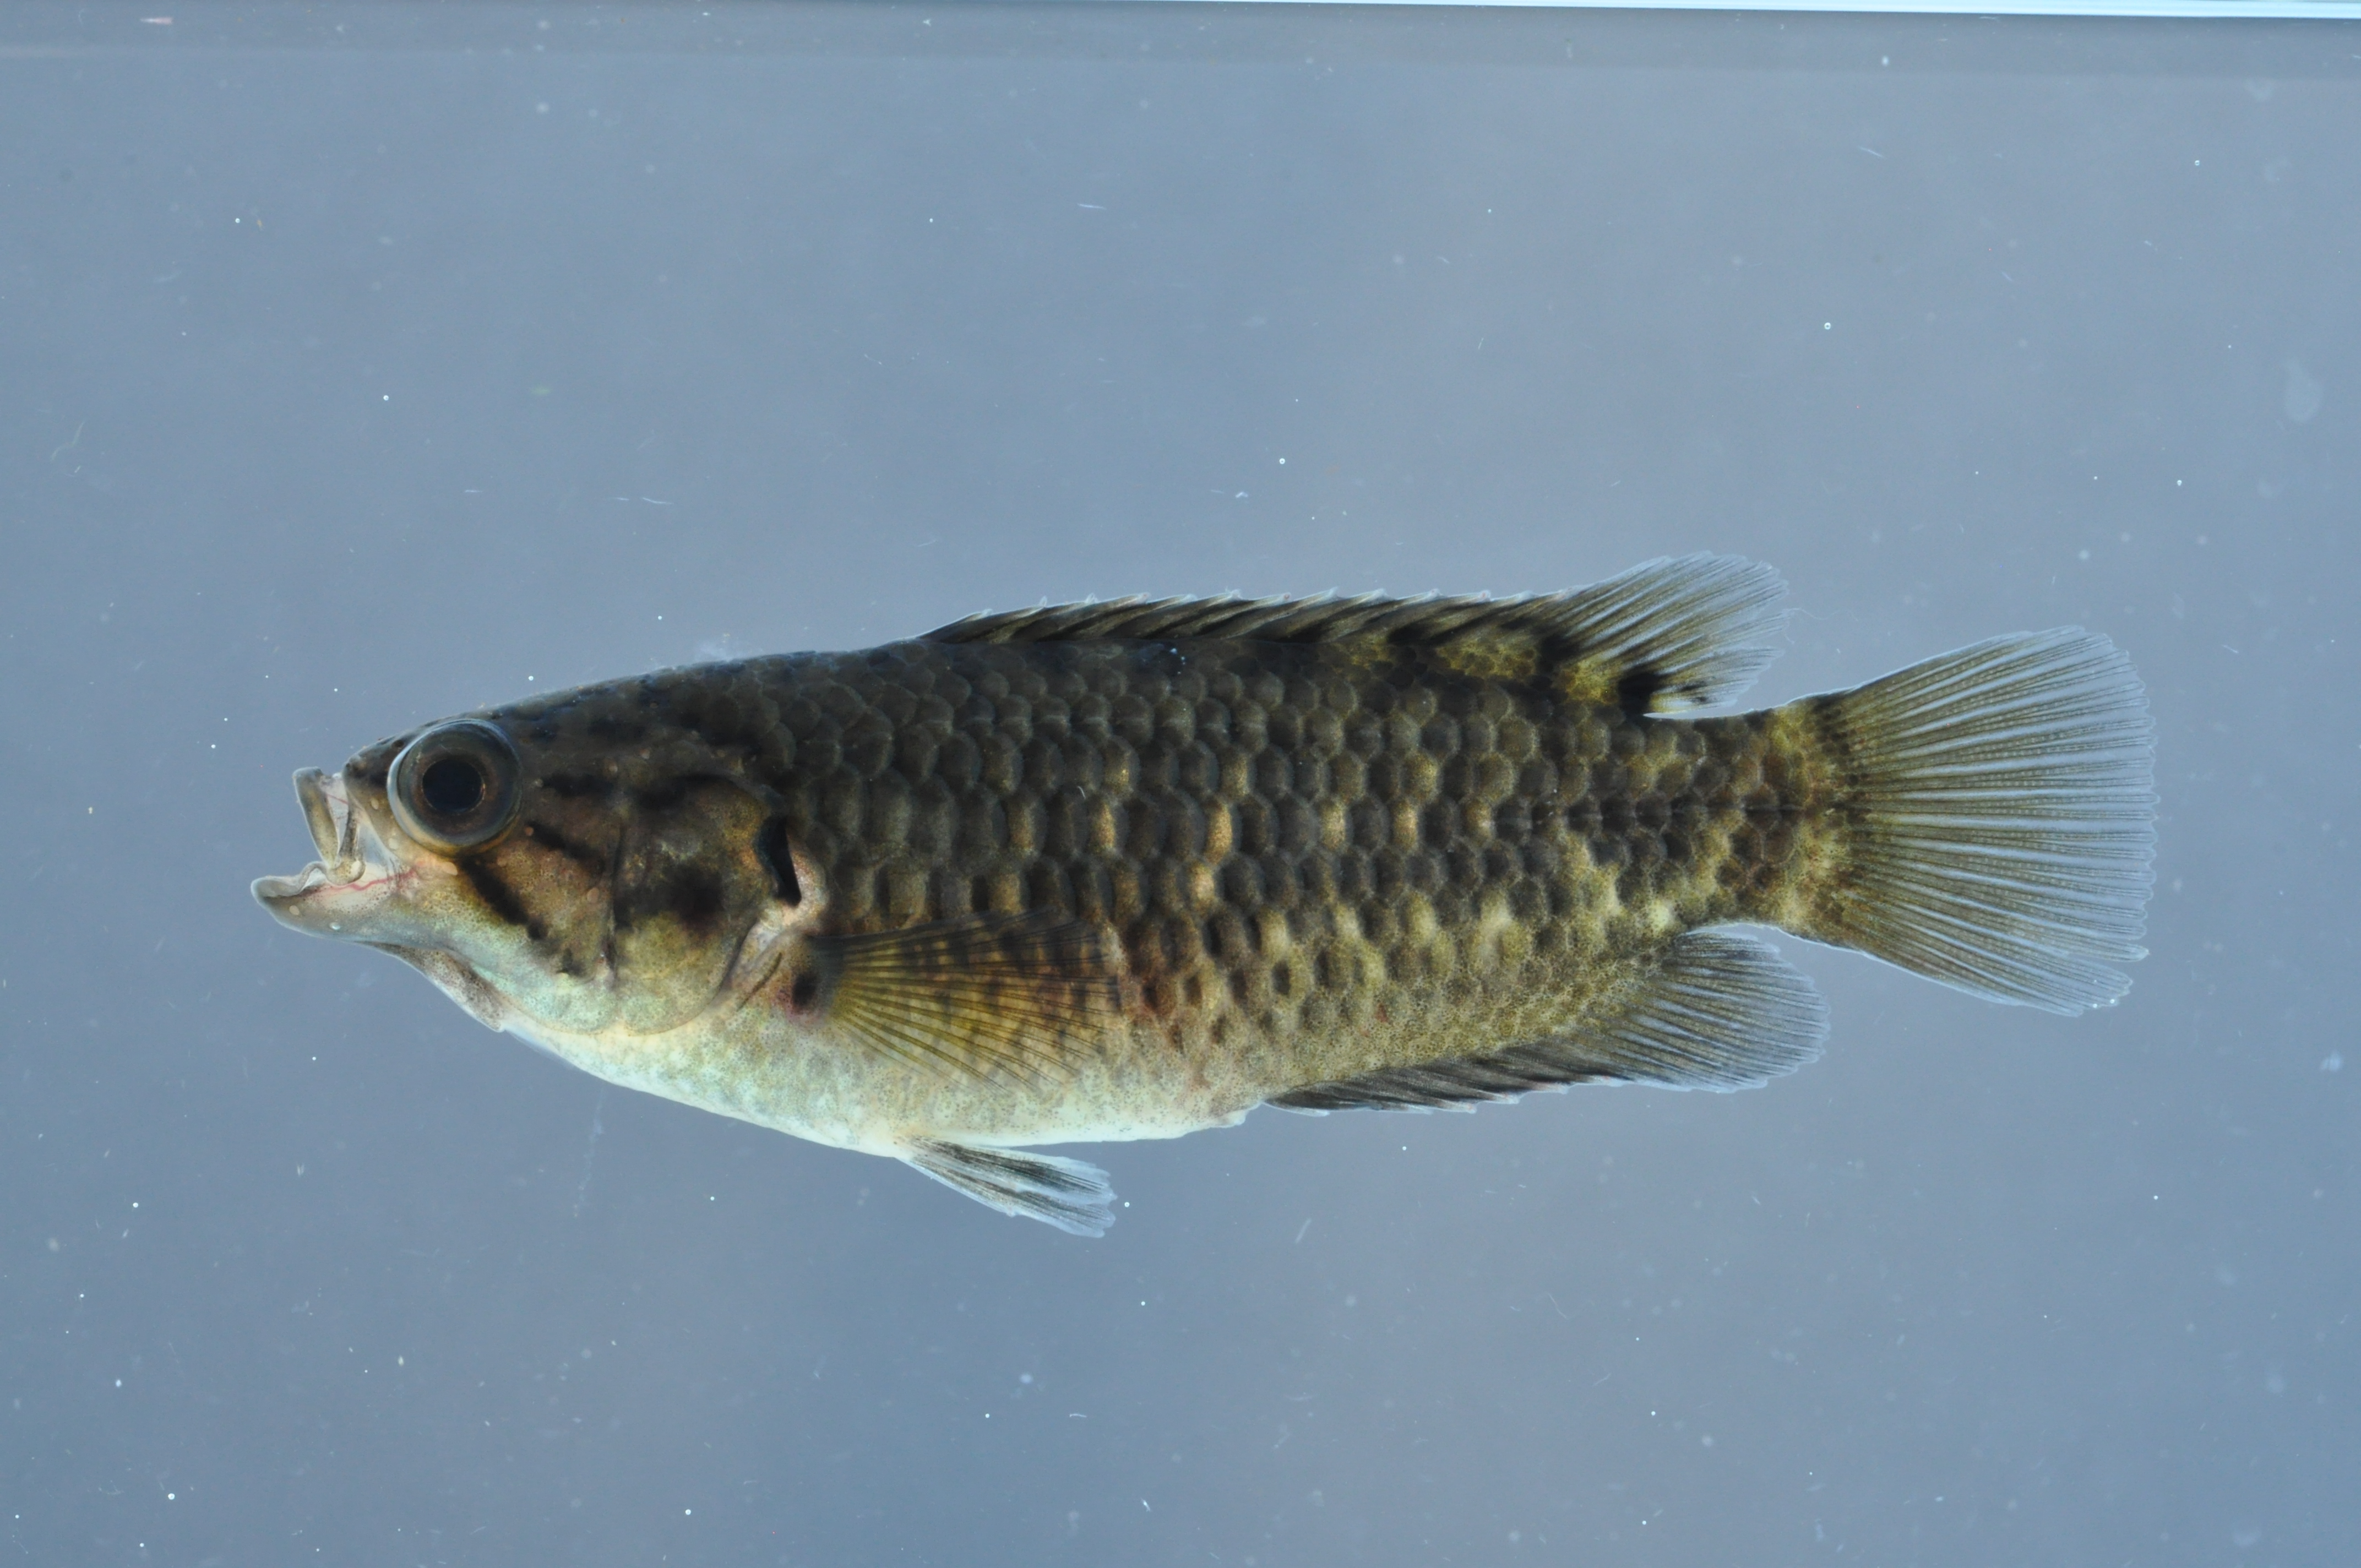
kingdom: Animalia
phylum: Chordata
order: Perciformes
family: Anabantidae
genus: Sandelia
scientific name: Sandelia capensis
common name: Cape kurper
